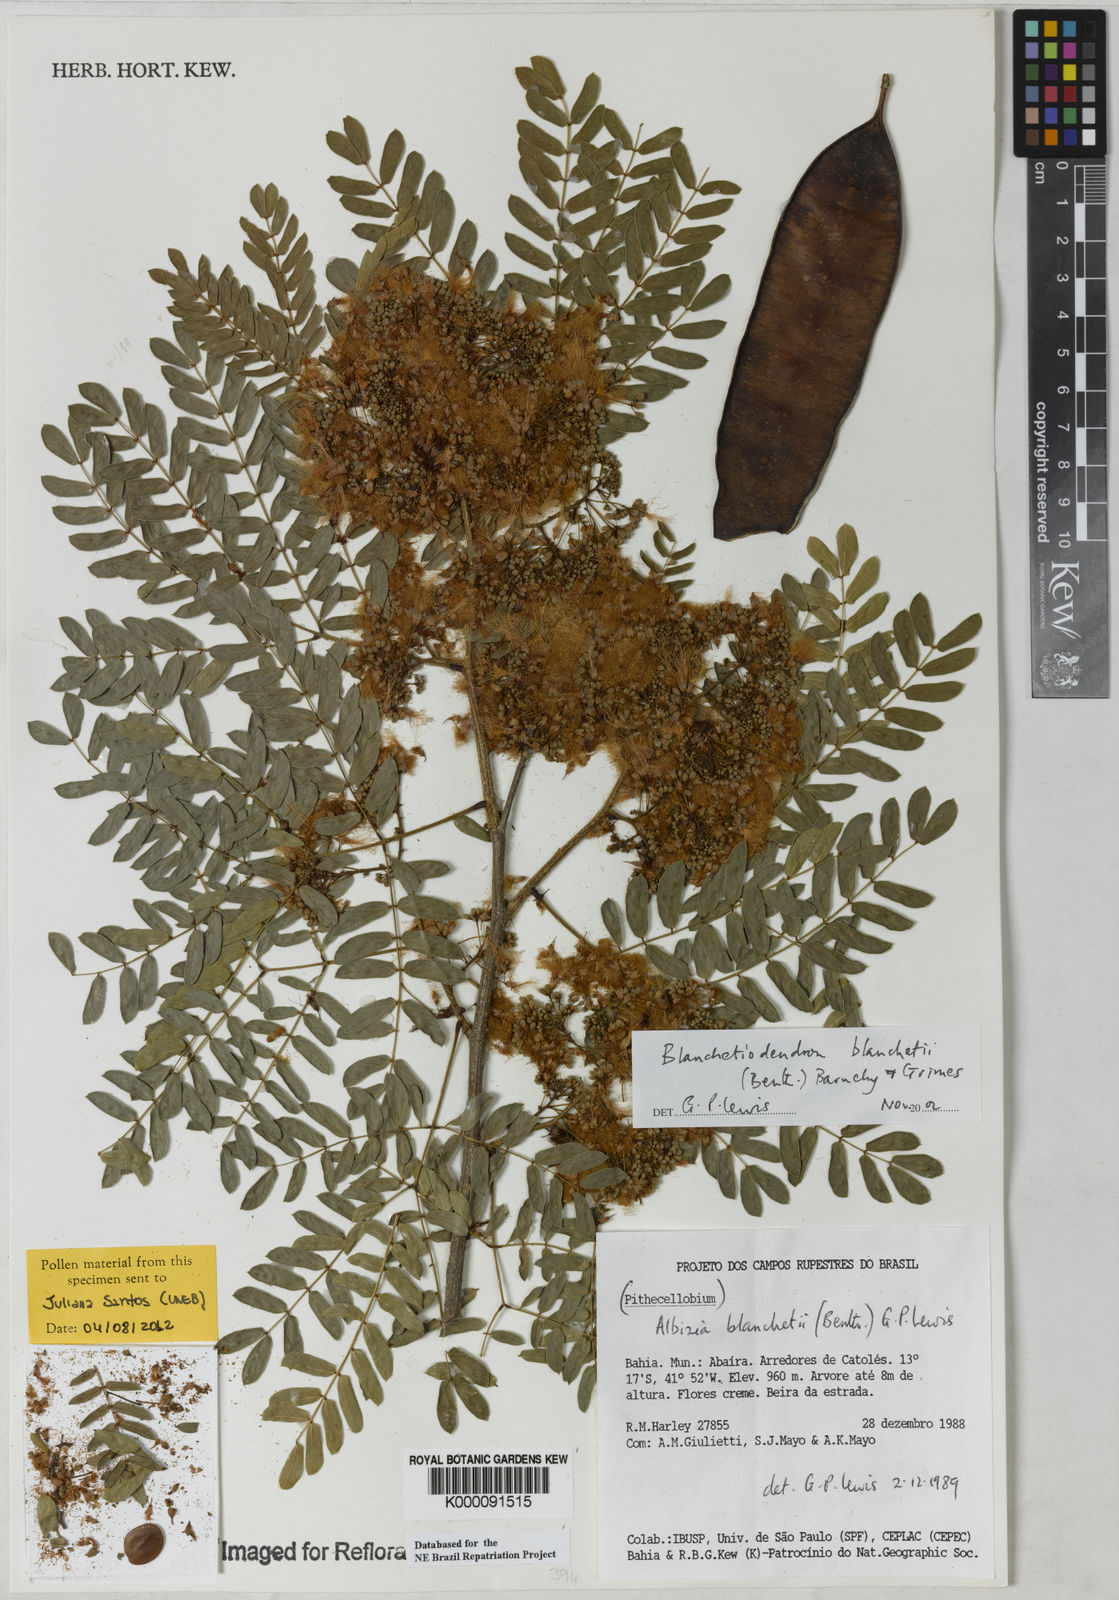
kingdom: Plantae
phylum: Tracheophyta
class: Magnoliopsida
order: Fabales
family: Fabaceae
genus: Blanchetiodendron
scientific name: Blanchetiodendron blanchetii
